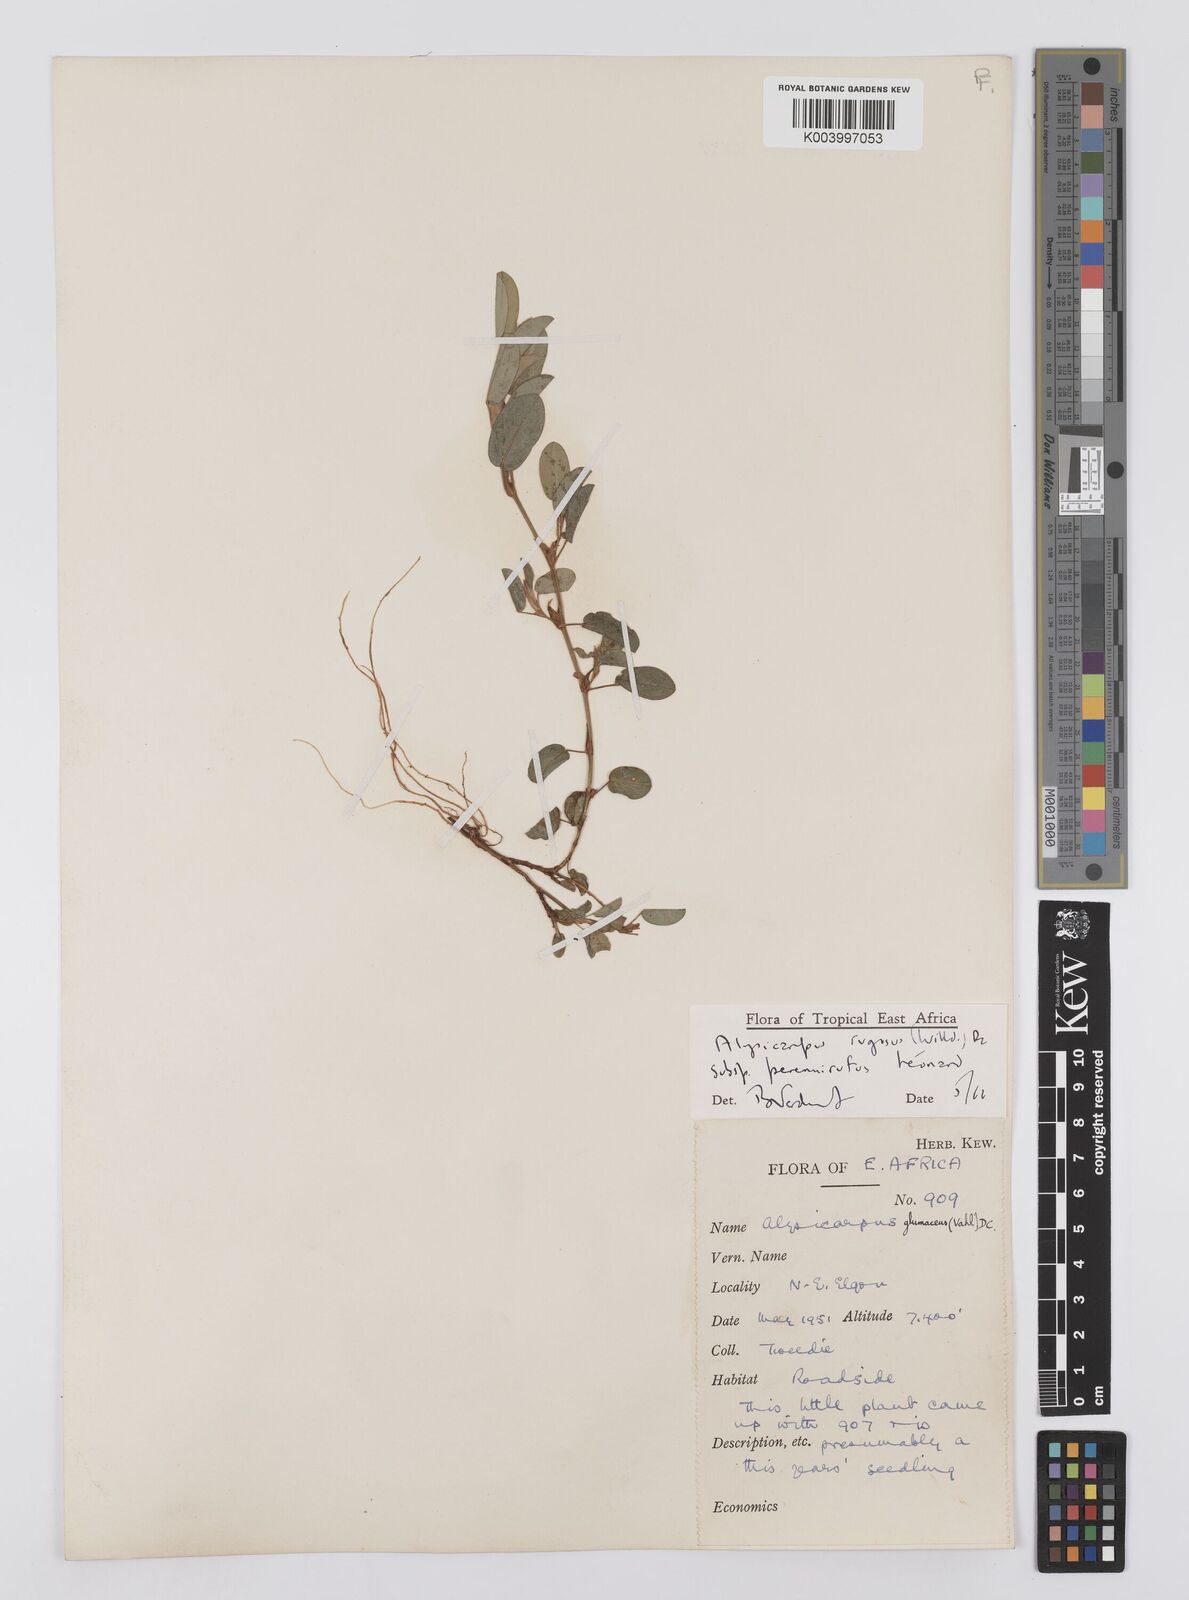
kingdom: Plantae
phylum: Tracheophyta
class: Magnoliopsida
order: Fabales
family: Fabaceae
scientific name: Fabaceae
